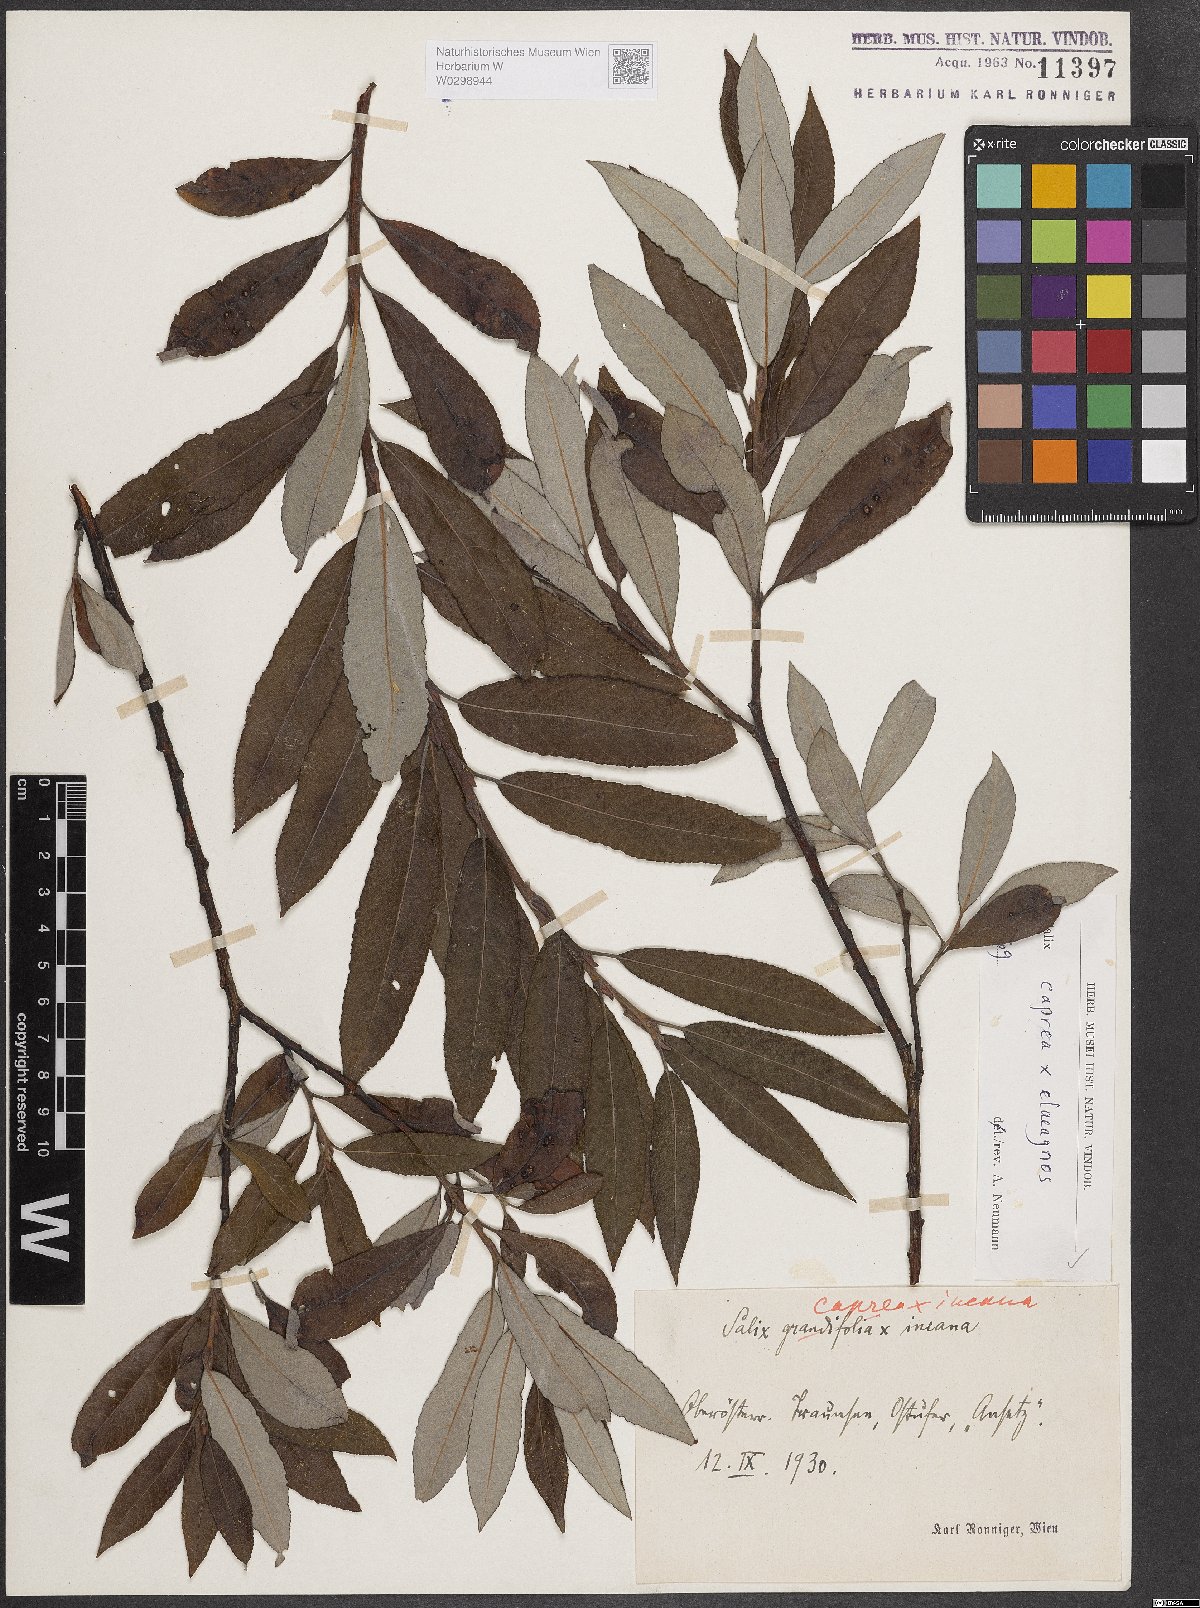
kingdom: Plantae
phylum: Tracheophyta
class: Magnoliopsida
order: Malpighiales
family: Salicaceae
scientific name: Salicaceae
